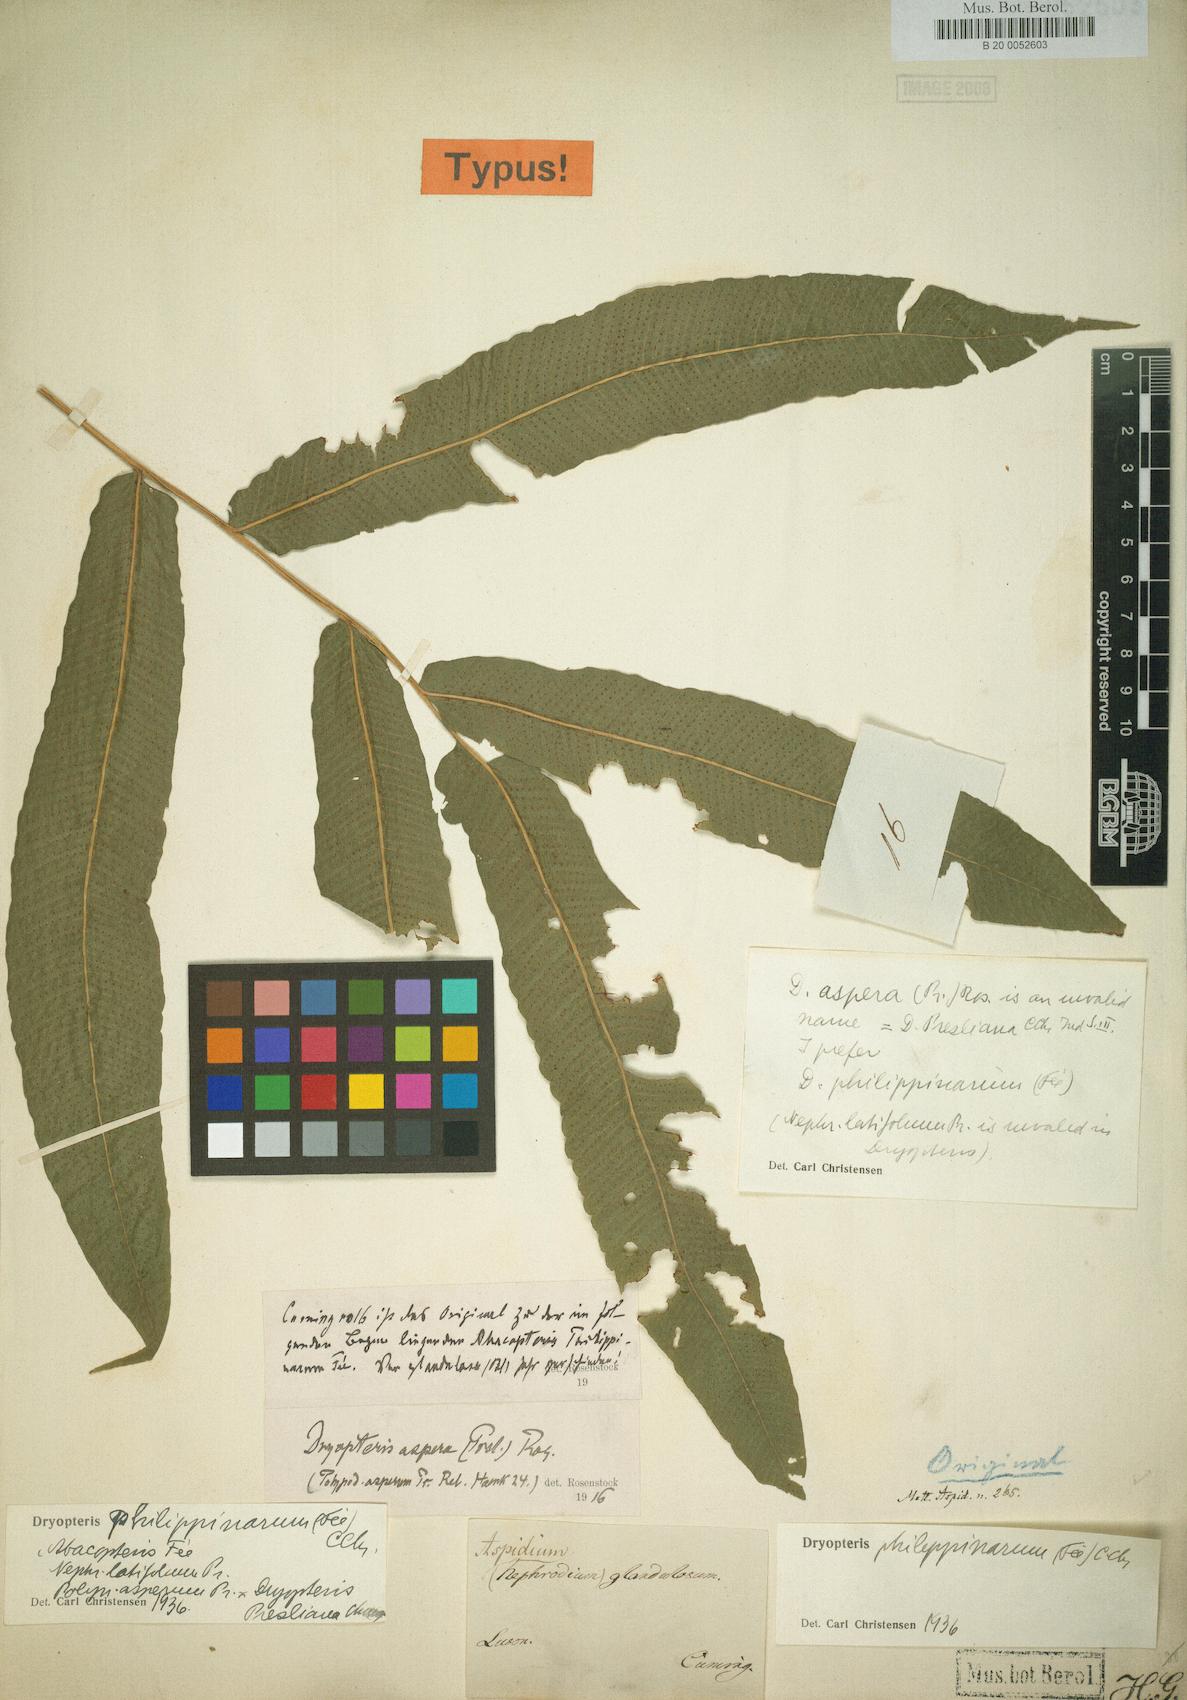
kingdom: Plantae
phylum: Tracheophyta
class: Polypodiopsida
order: Polypodiales
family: Dryopteridaceae
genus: Dryopteris
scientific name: Dryopteris
